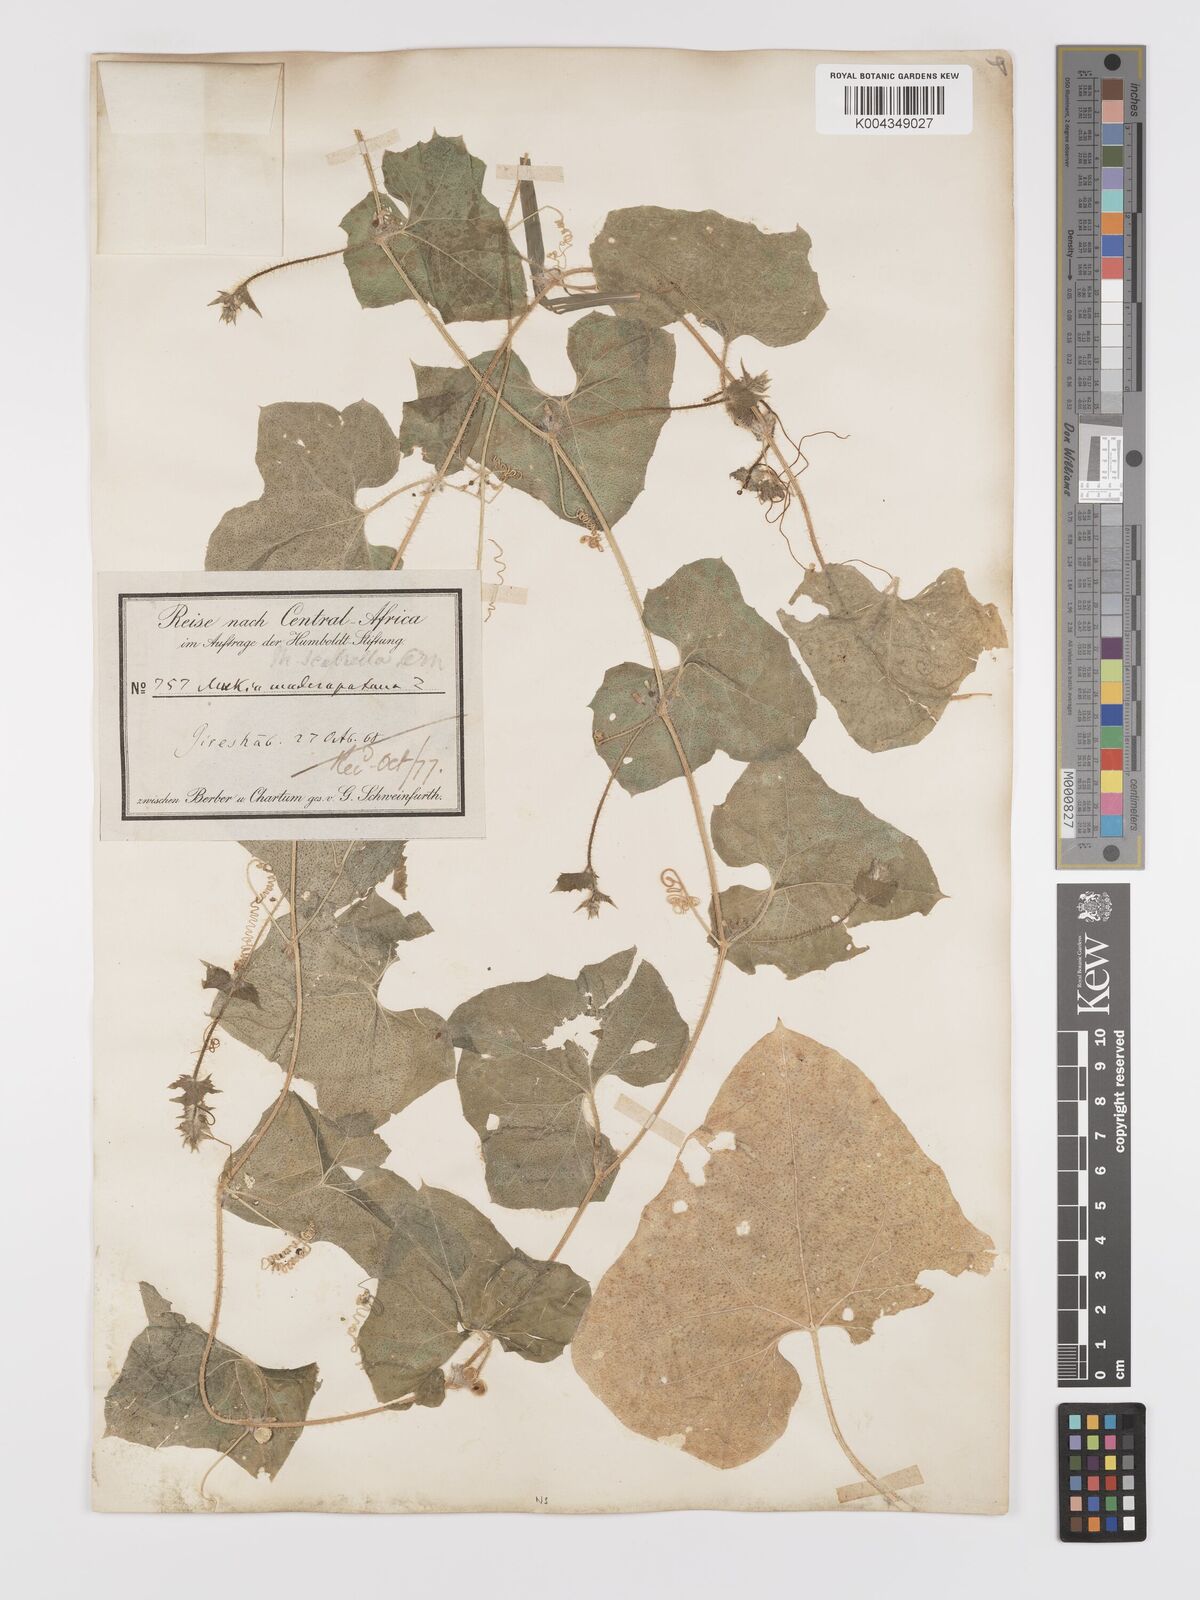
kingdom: Plantae
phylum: Tracheophyta
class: Magnoliopsida
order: Cucurbitales
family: Cucurbitaceae
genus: Cucumis
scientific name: Cucumis maderaspatanus
